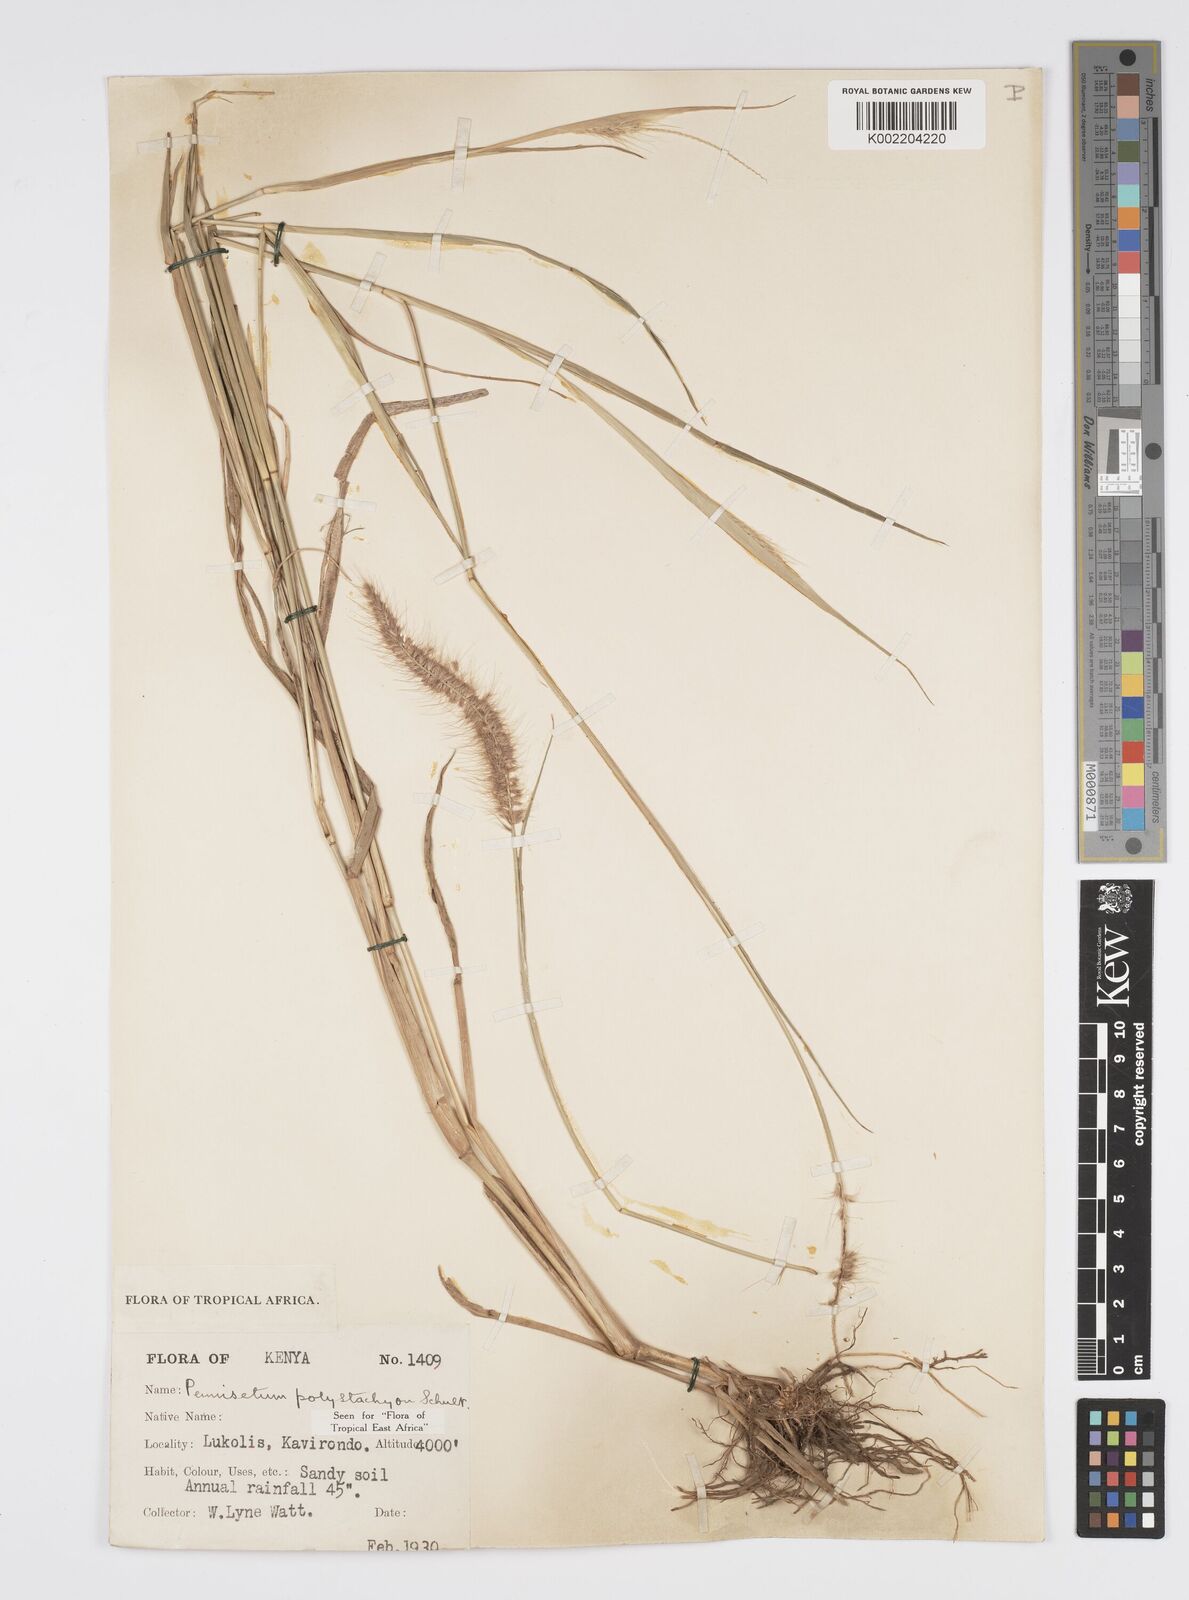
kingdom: Plantae
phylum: Tracheophyta
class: Liliopsida
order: Poales
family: Poaceae
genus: Setaria
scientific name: Setaria parviflora
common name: Knotroot bristle-grass
